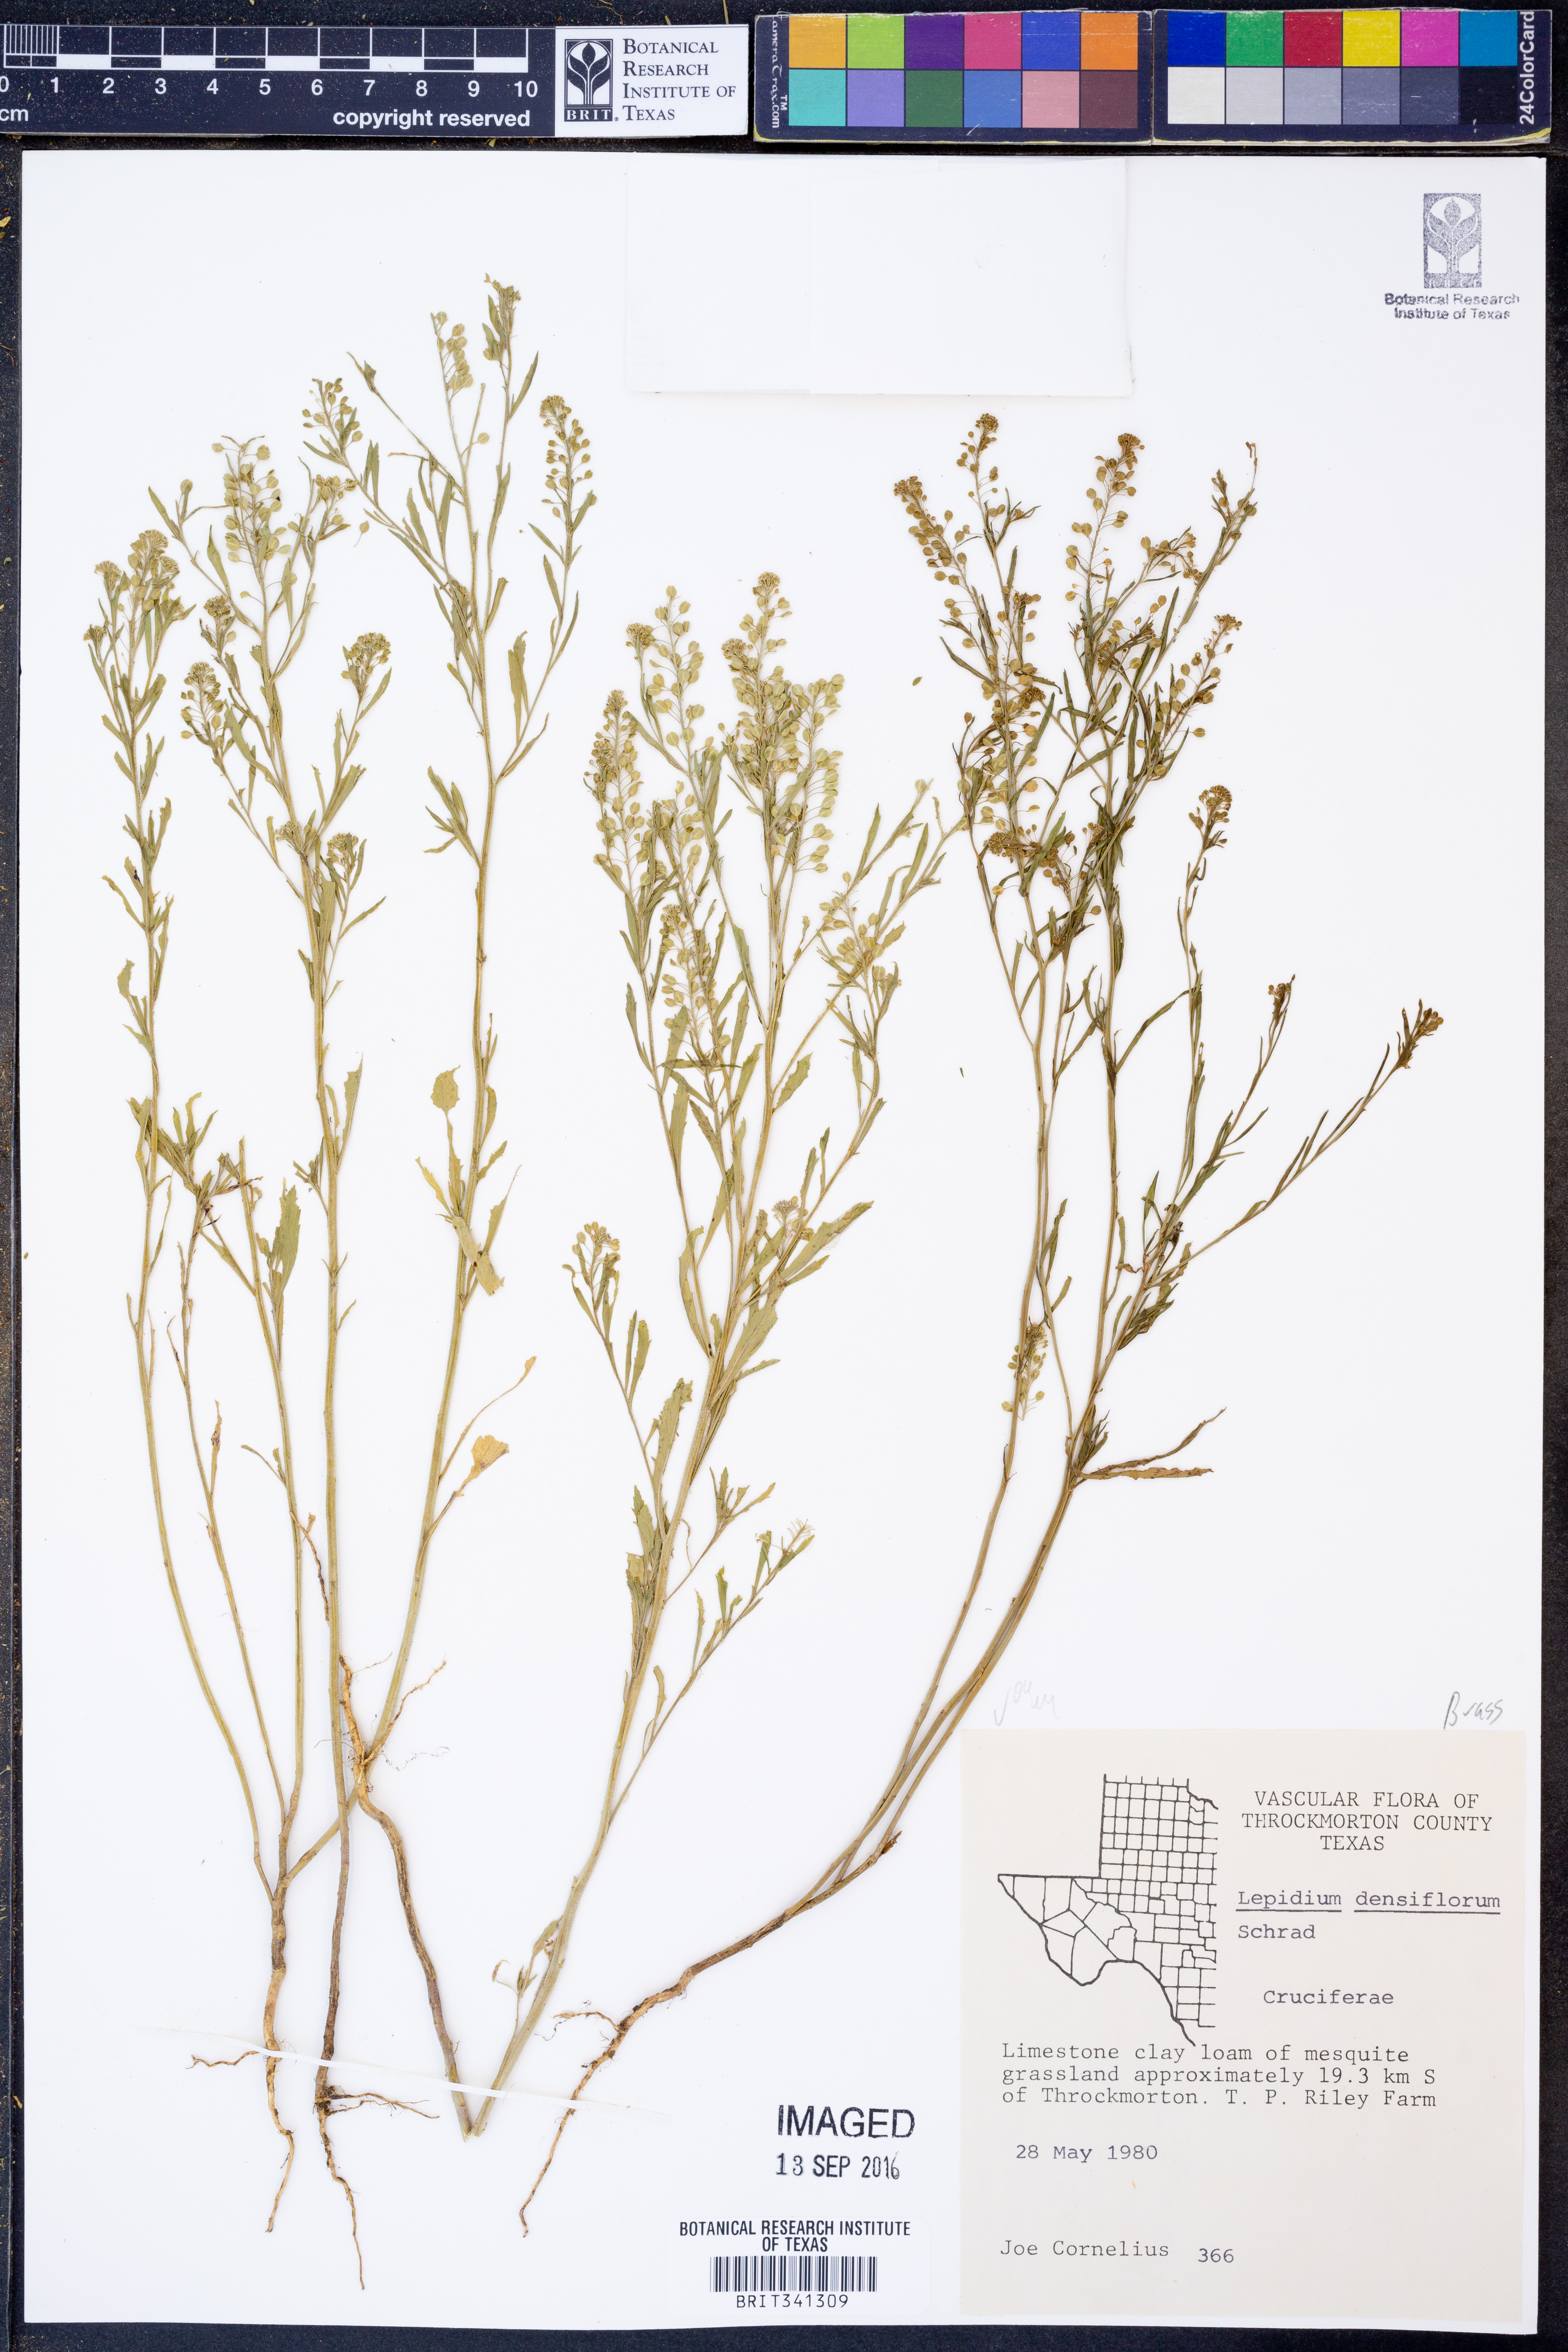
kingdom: Plantae
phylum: Tracheophyta
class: Magnoliopsida
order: Brassicales
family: Brassicaceae
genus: Lepidium
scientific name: Lepidium densiflorum
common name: Miner's pepperwort
